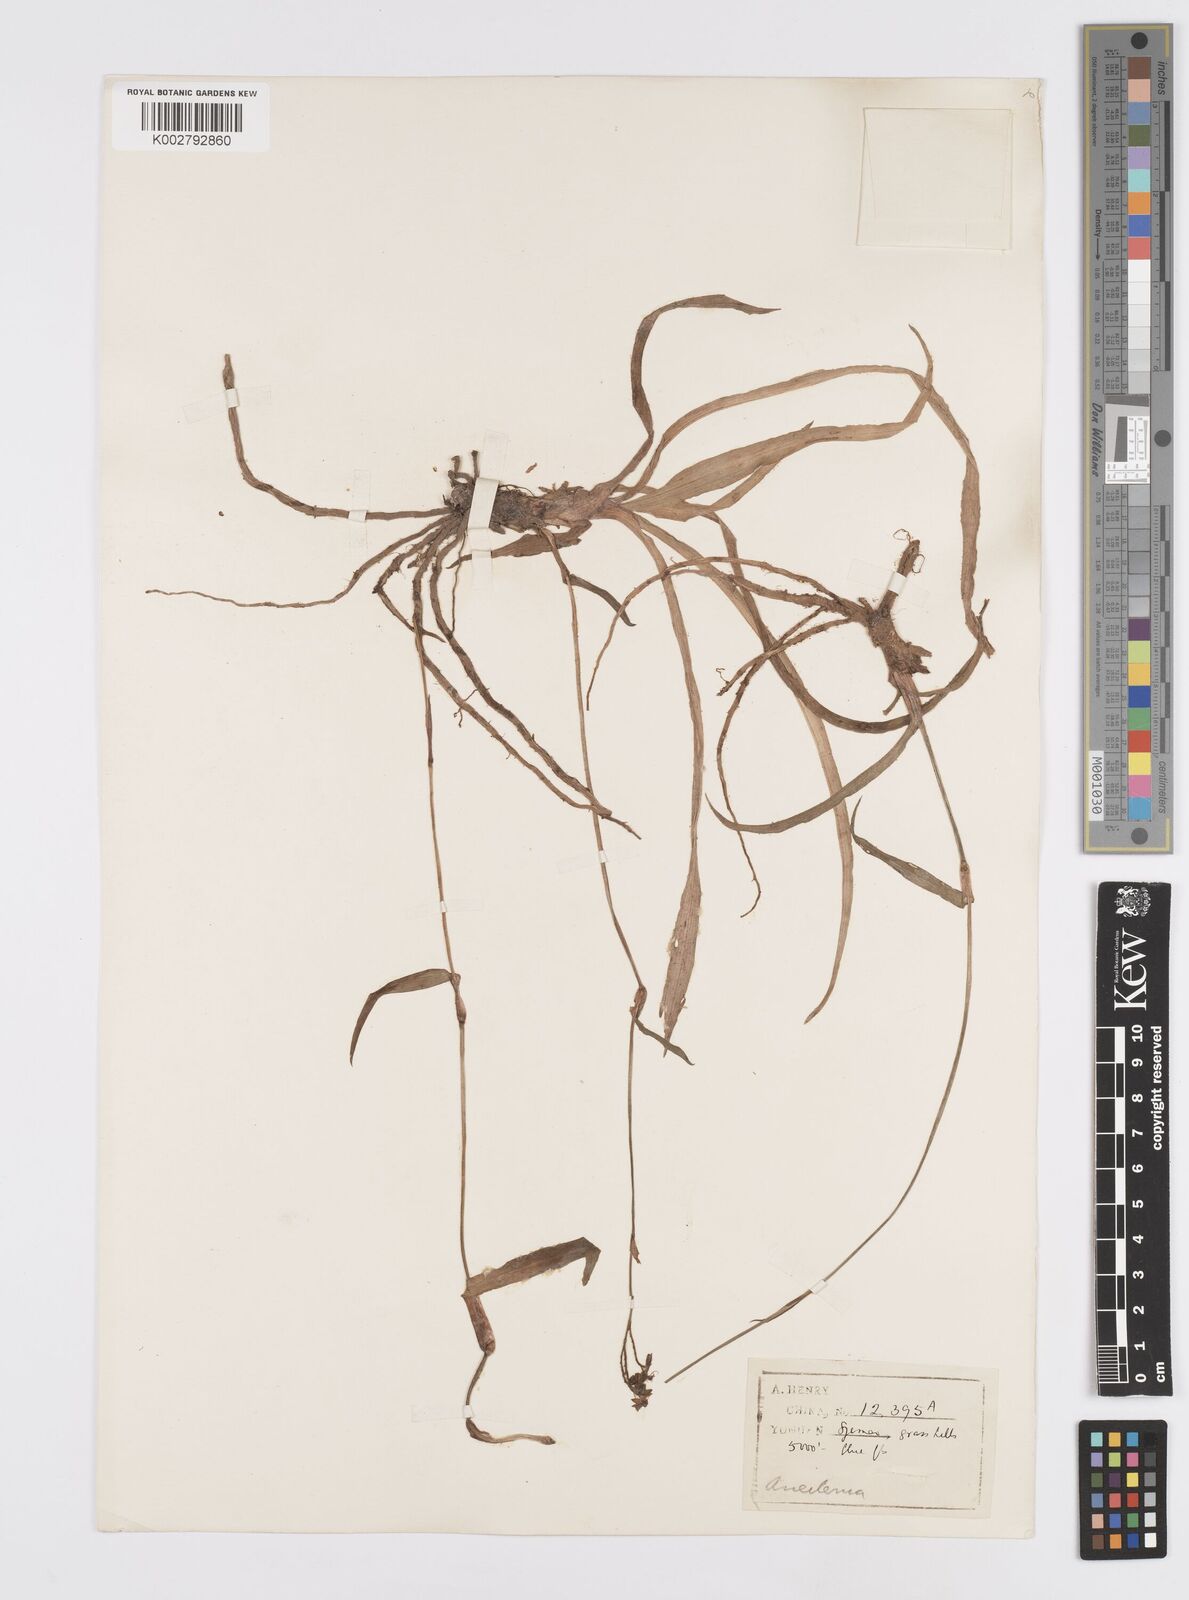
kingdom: Plantae
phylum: Tracheophyta
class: Liliopsida
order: Commelinales
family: Commelinaceae
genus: Murdannia
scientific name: Murdannia simplex
